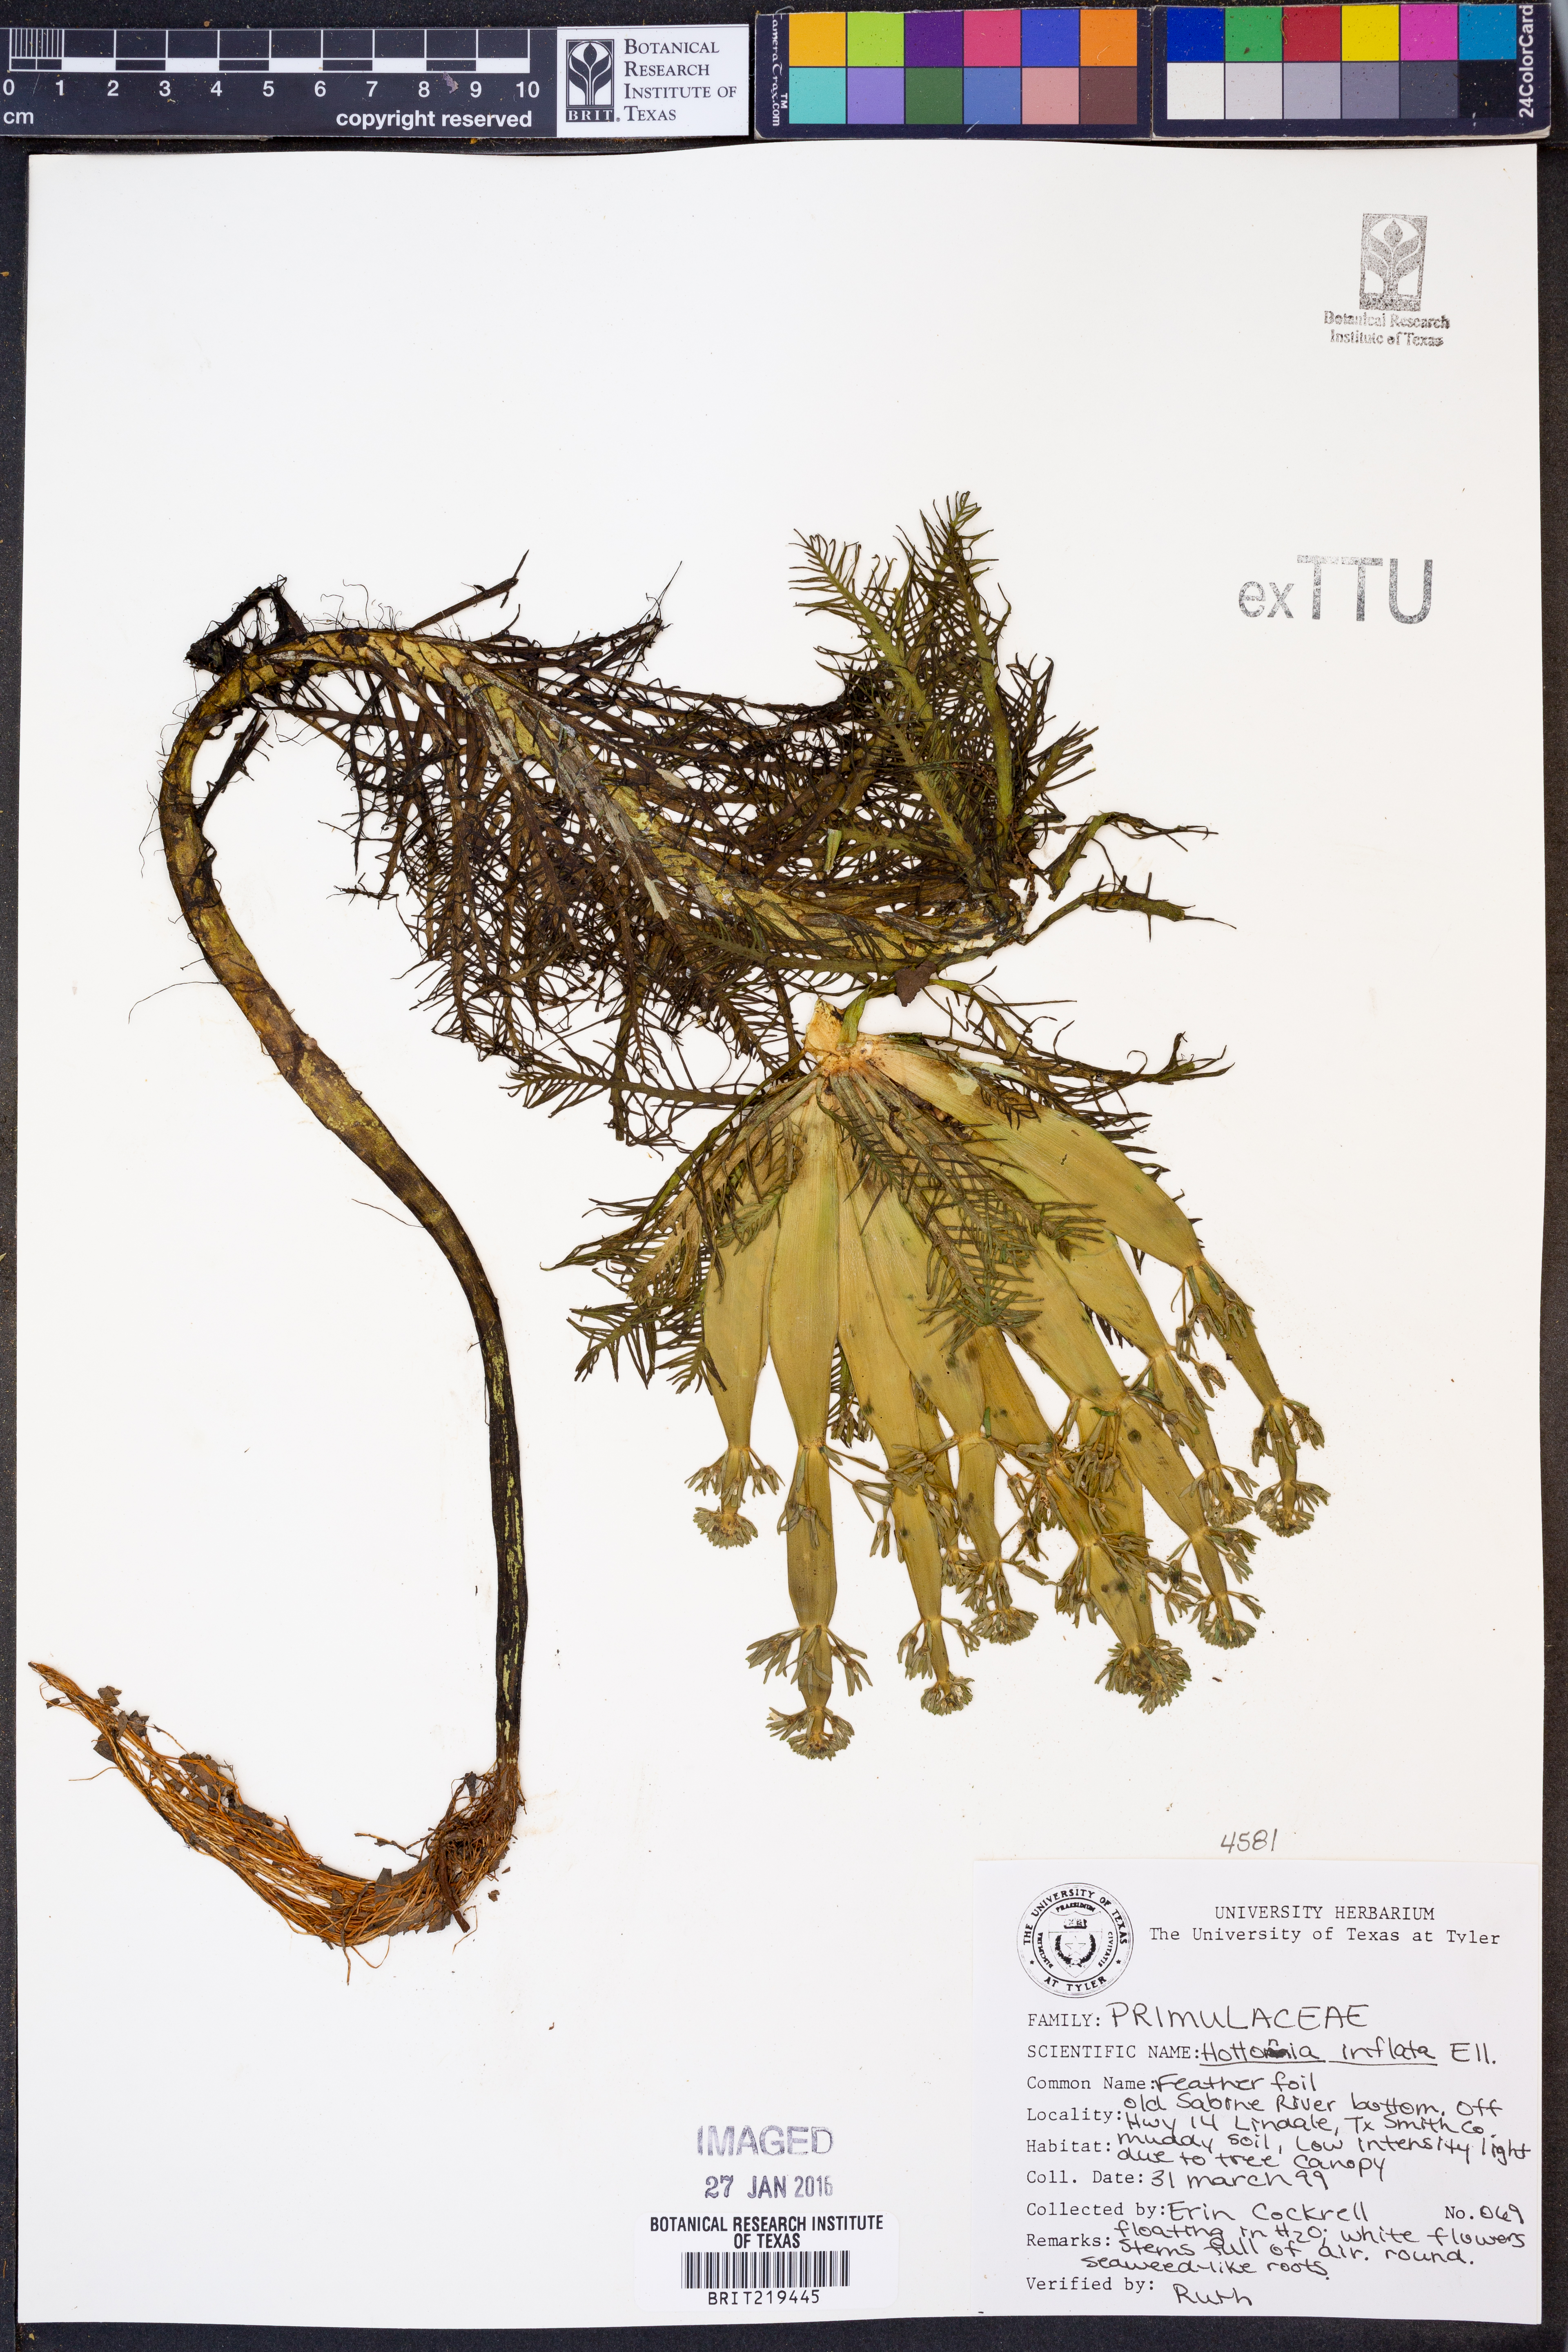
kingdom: Plantae
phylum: Tracheophyta
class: Magnoliopsida
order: Ericales
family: Primulaceae
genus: Hottonia
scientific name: Hottonia inflata
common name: American featherfoil
